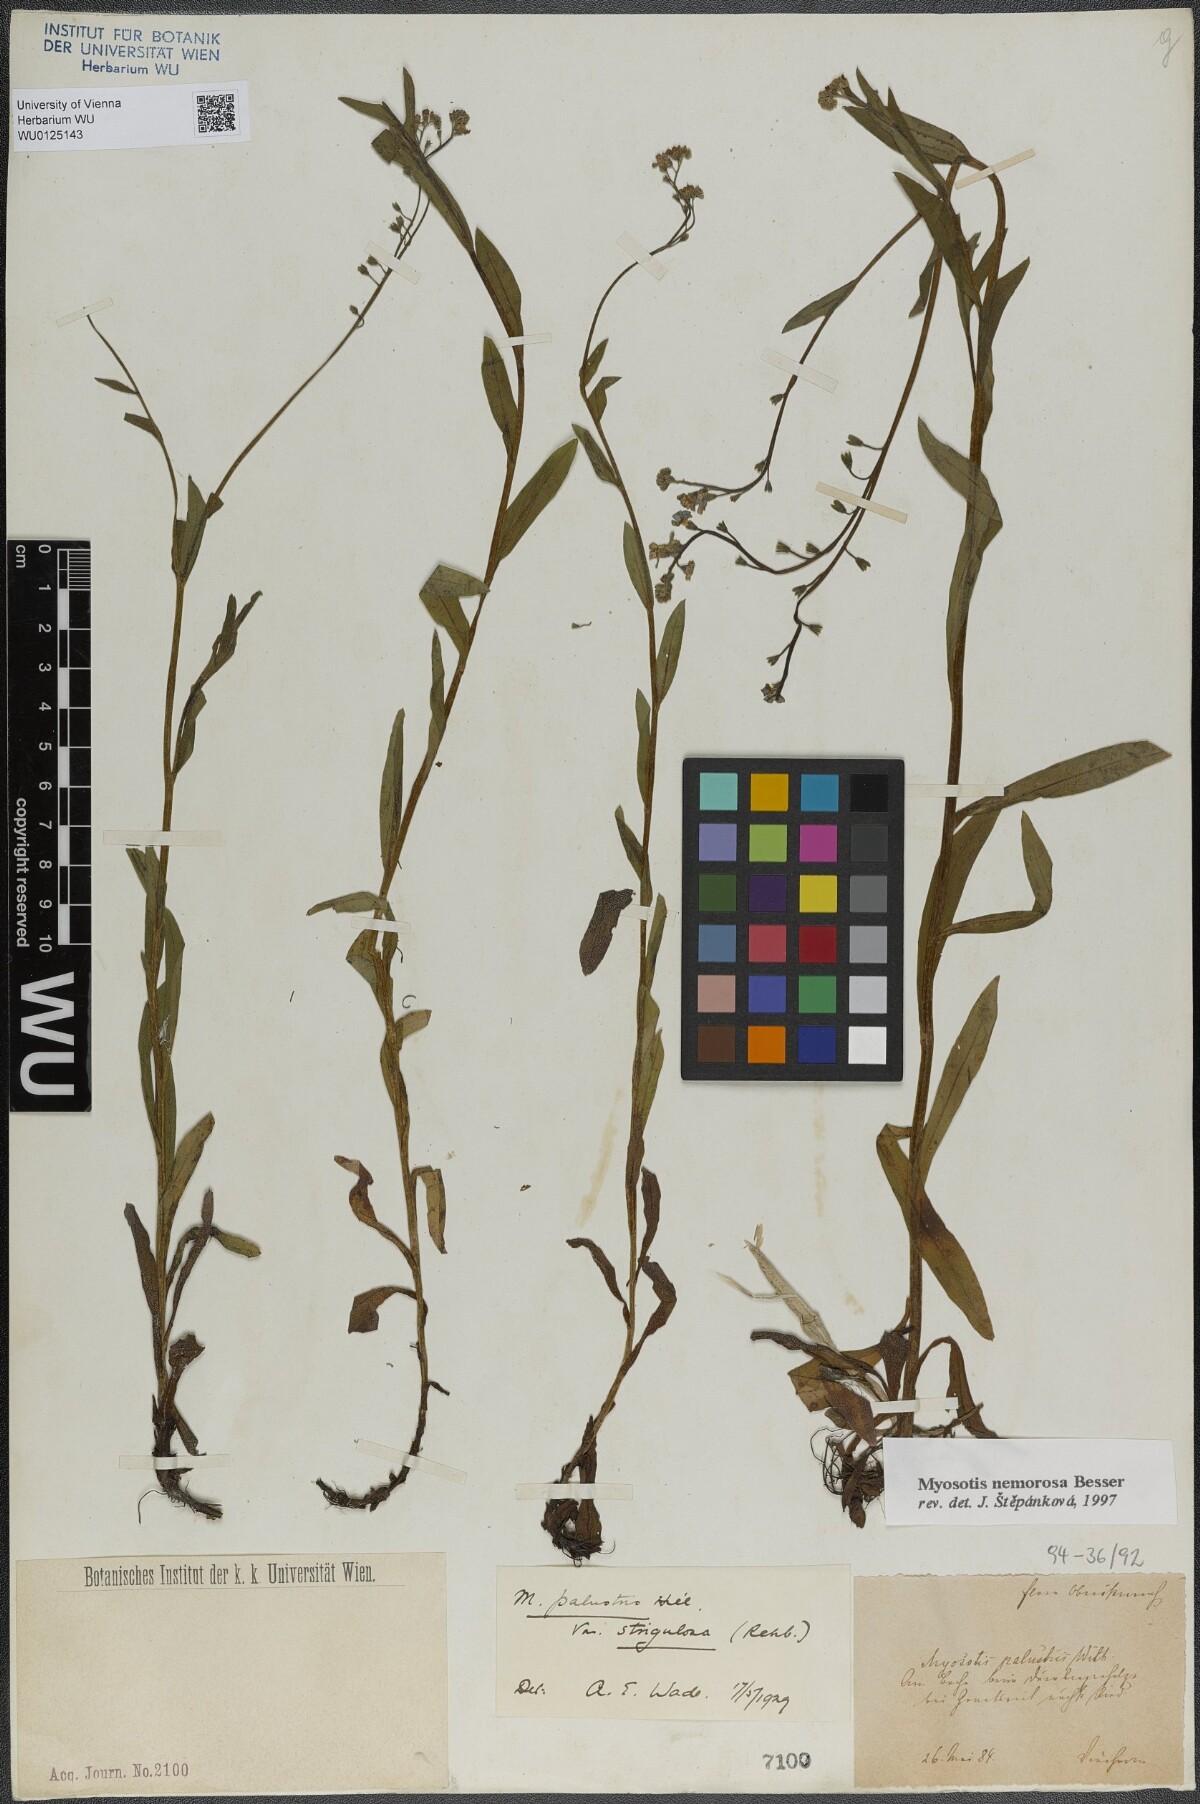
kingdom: Plantae
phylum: Tracheophyta
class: Magnoliopsida
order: Boraginales
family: Boraginaceae
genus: Myosotis
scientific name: Myosotis nemorosa
